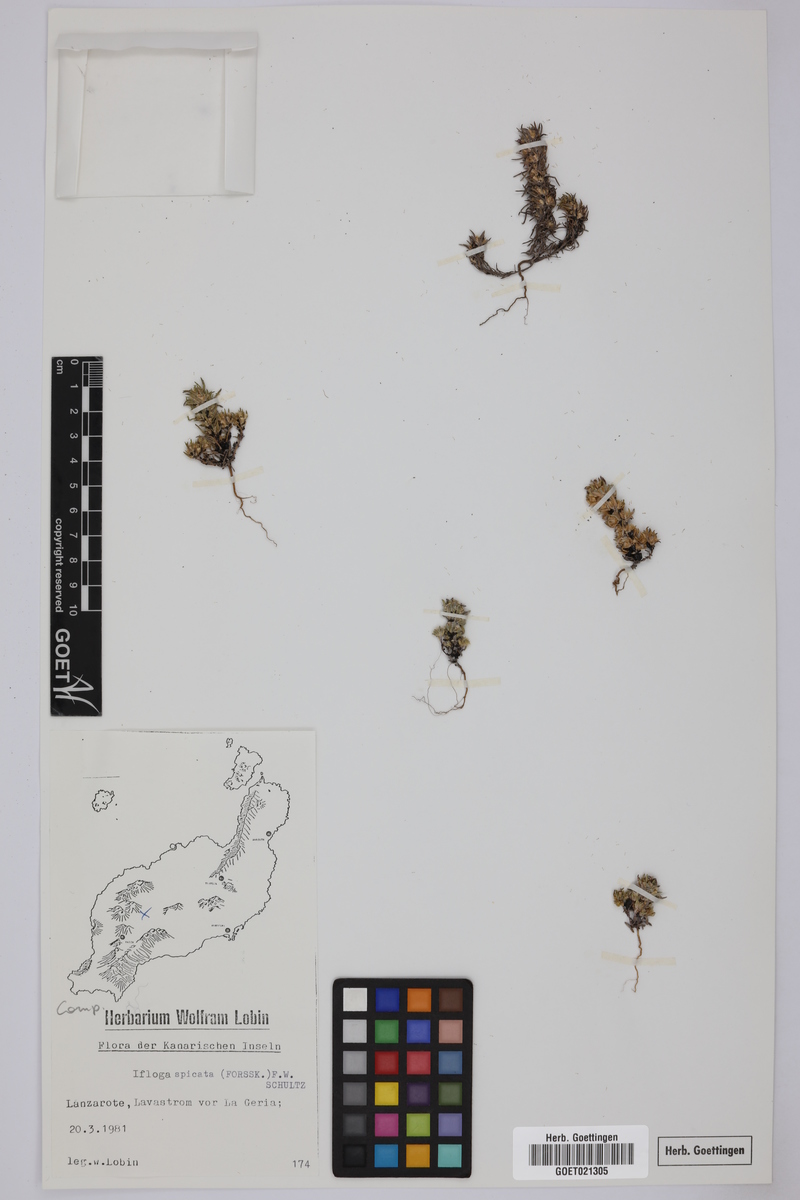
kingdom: Plantae
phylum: Tracheophyta
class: Magnoliopsida
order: Asterales
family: Asteraceae
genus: Ifloga
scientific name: Ifloga spicata
